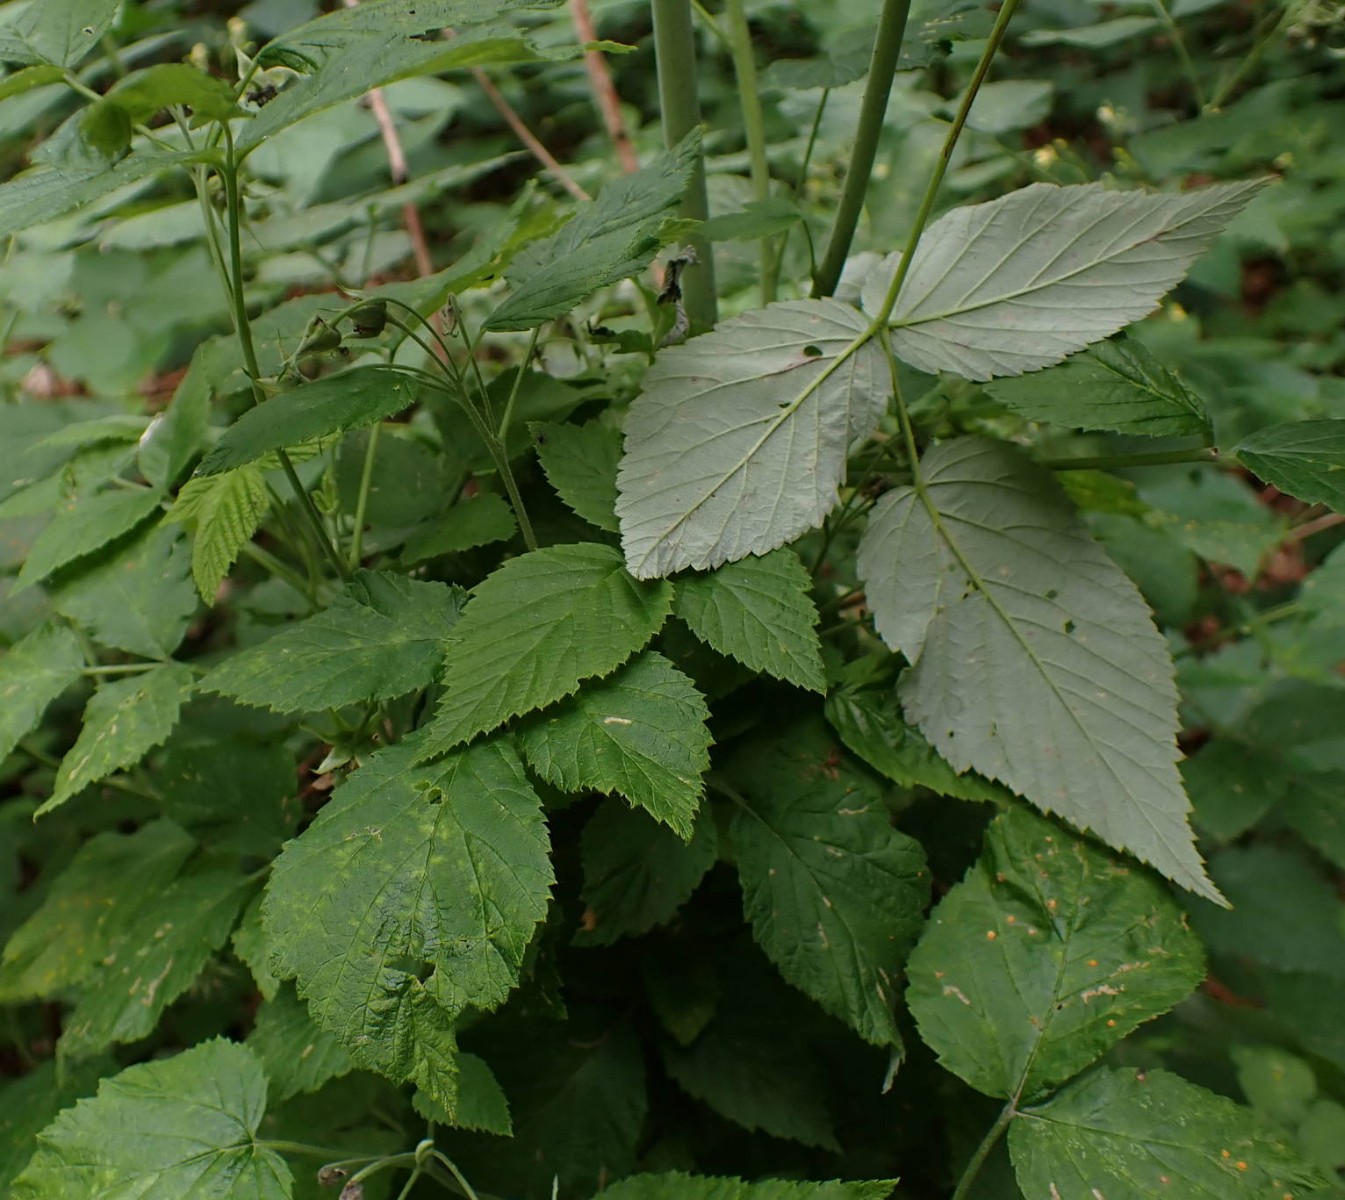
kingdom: Fungi
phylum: Basidiomycota
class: Pucciniomycetes
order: Pucciniales
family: Phragmidiaceae
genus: Phragmidium
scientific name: Phragmidium rubi-idaei
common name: hindbær-flercellerust
